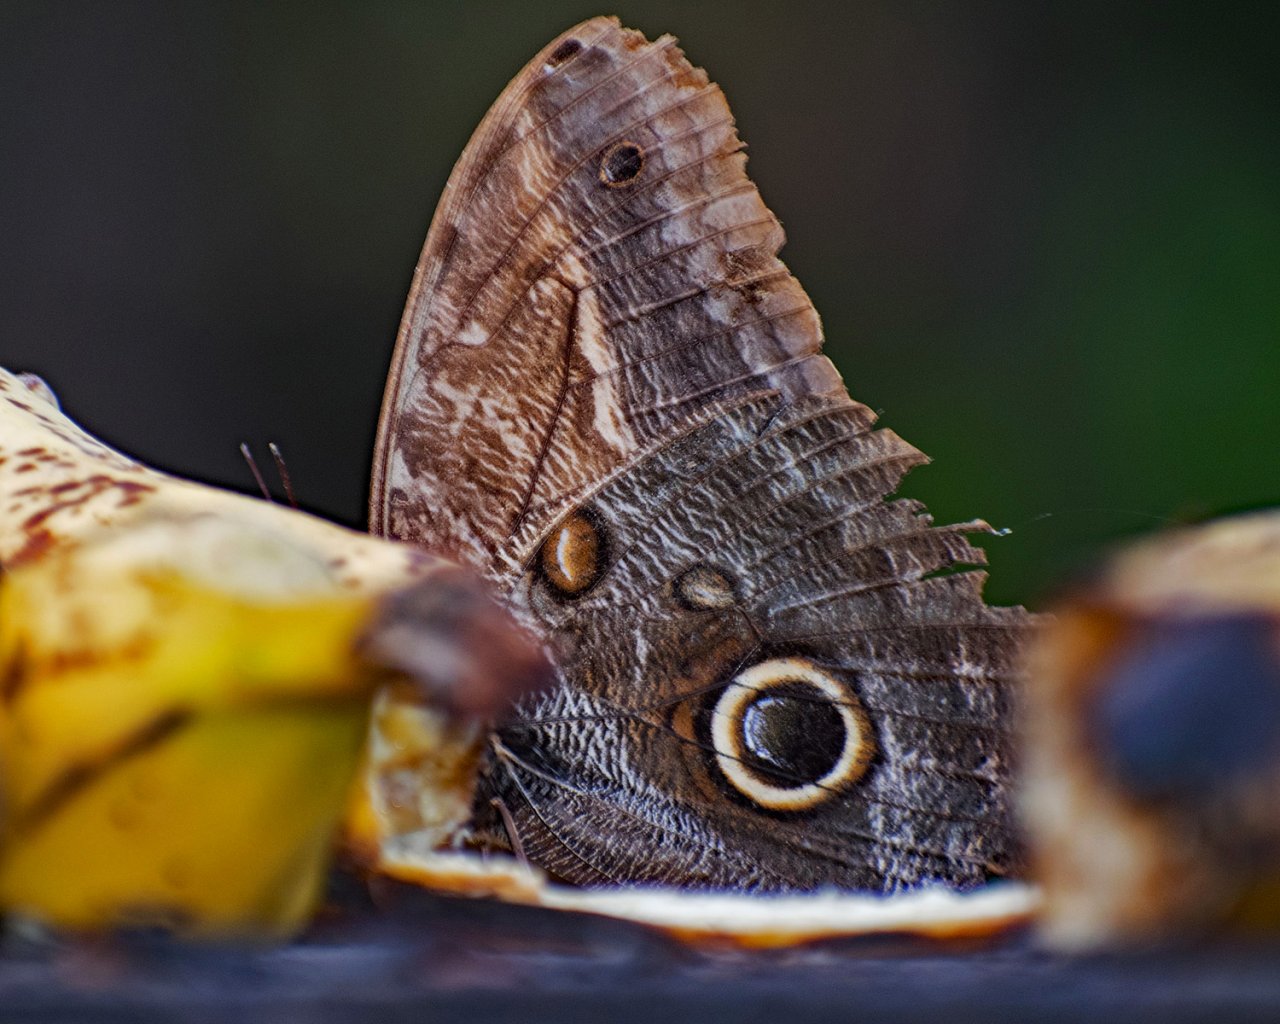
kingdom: Animalia
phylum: Arthropoda
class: Insecta
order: Lepidoptera
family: Nymphalidae
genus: Caligo
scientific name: Caligo telamonius
